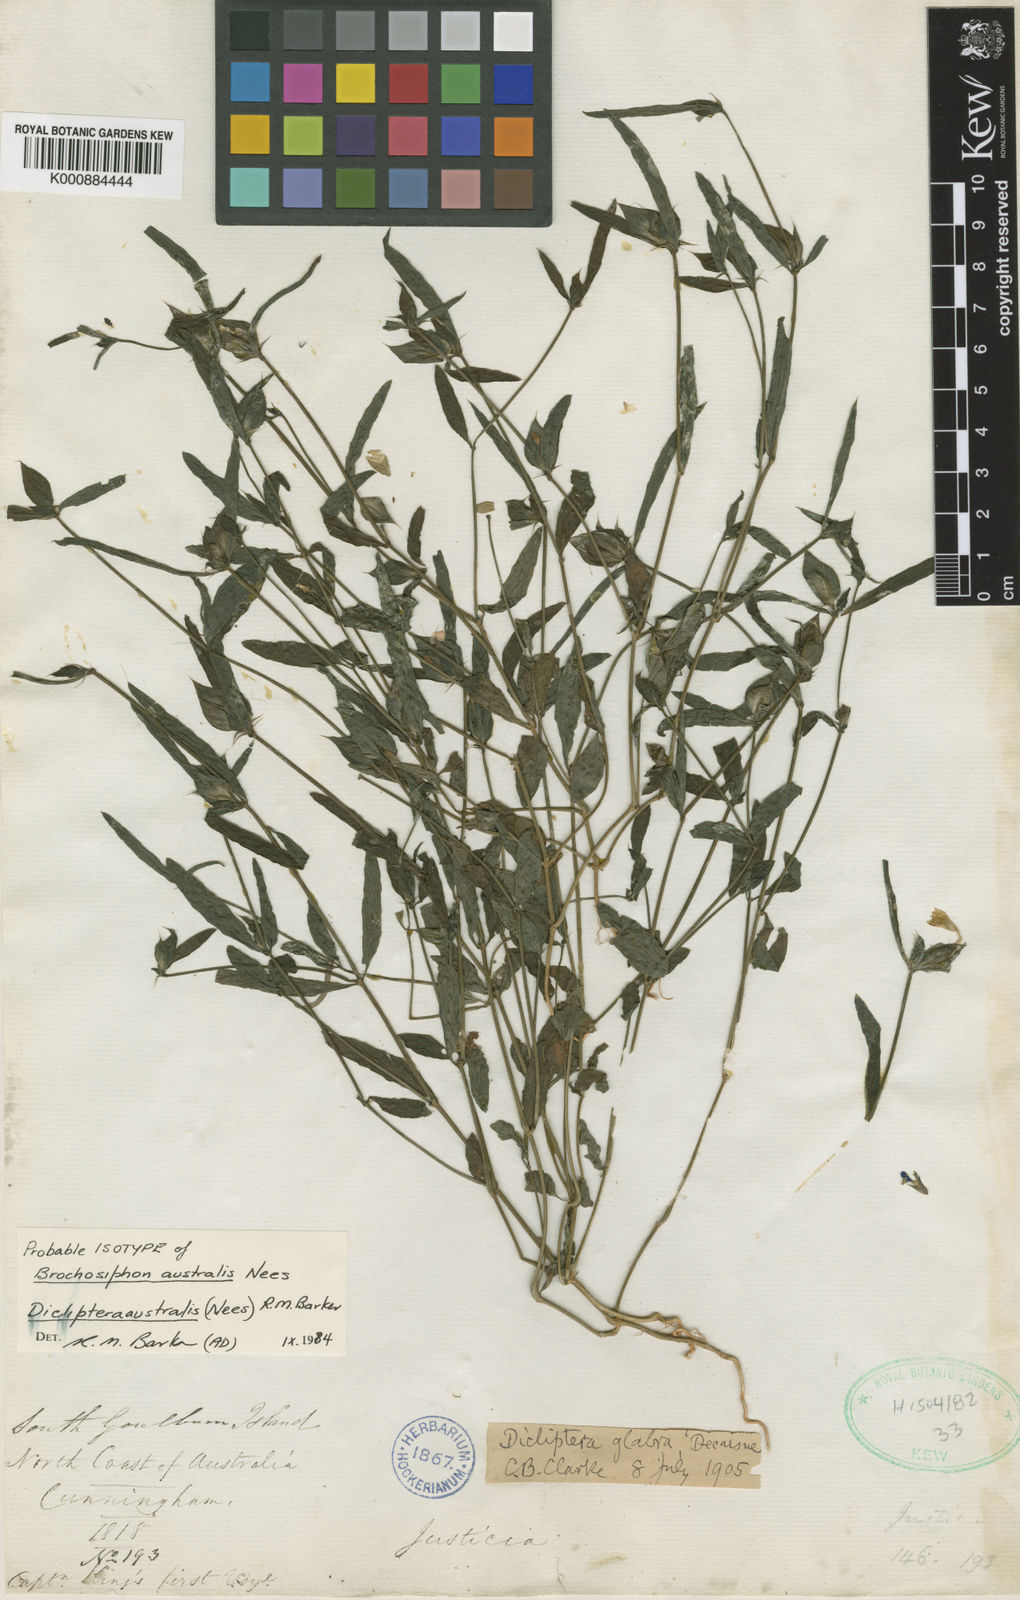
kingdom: Plantae
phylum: Tracheophyta
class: Magnoliopsida
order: Lamiales
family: Acanthaceae
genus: Dicliptera
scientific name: Dicliptera australis
